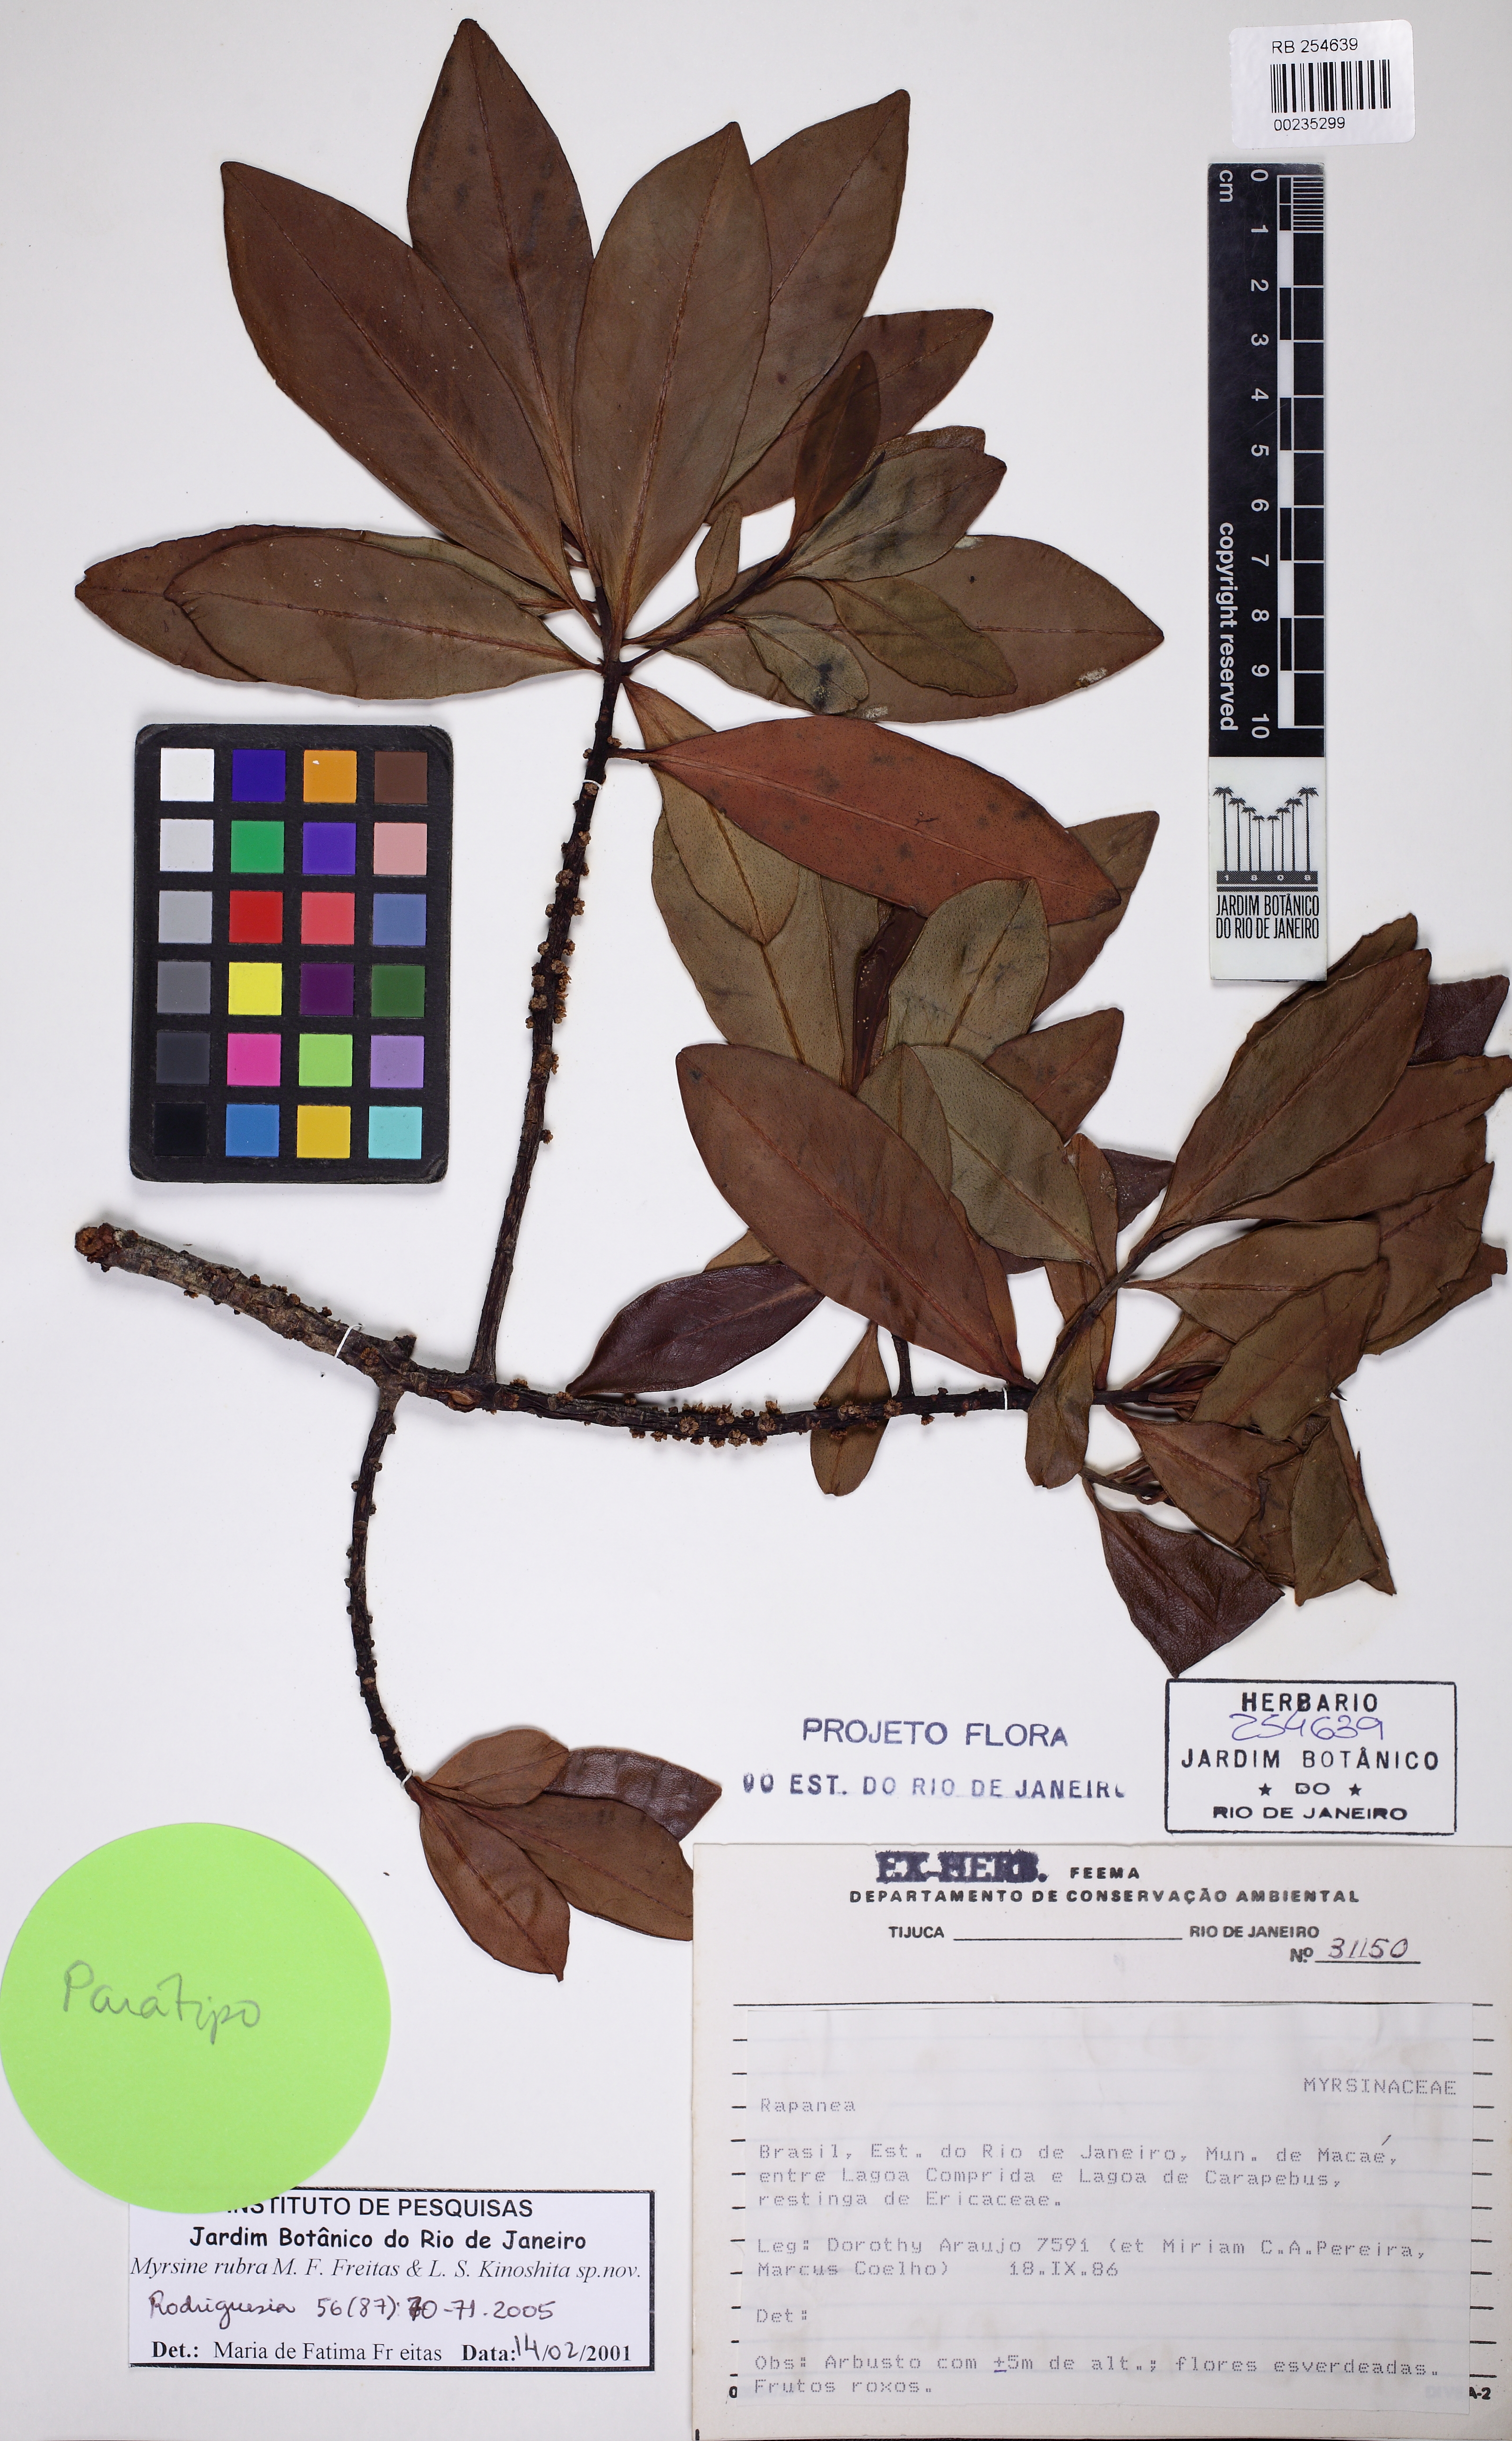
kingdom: Plantae
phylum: Tracheophyta
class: Magnoliopsida
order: Ericales
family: Primulaceae
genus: Myrsine
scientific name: Myrsine rubra
